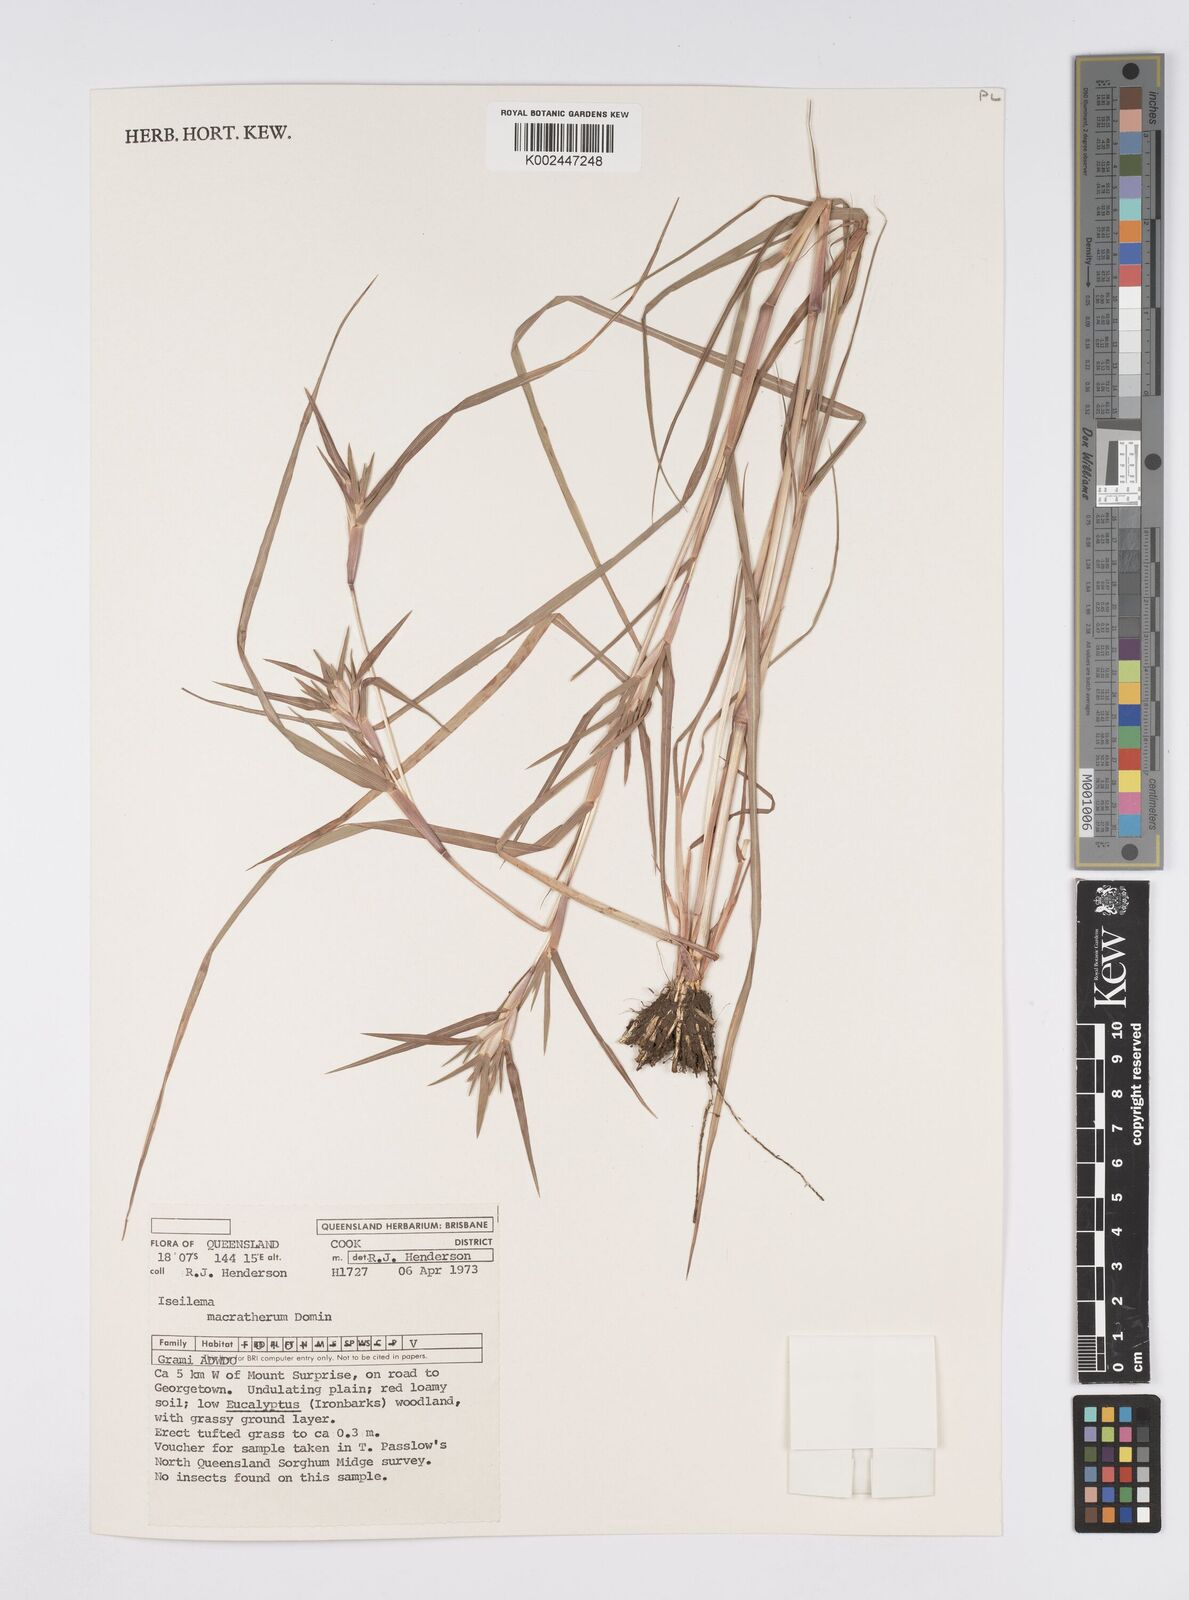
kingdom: Plantae
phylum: Tracheophyta
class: Liliopsida
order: Poales
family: Poaceae
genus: Iseilema
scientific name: Iseilema macratherum
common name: Bull flinders grass
